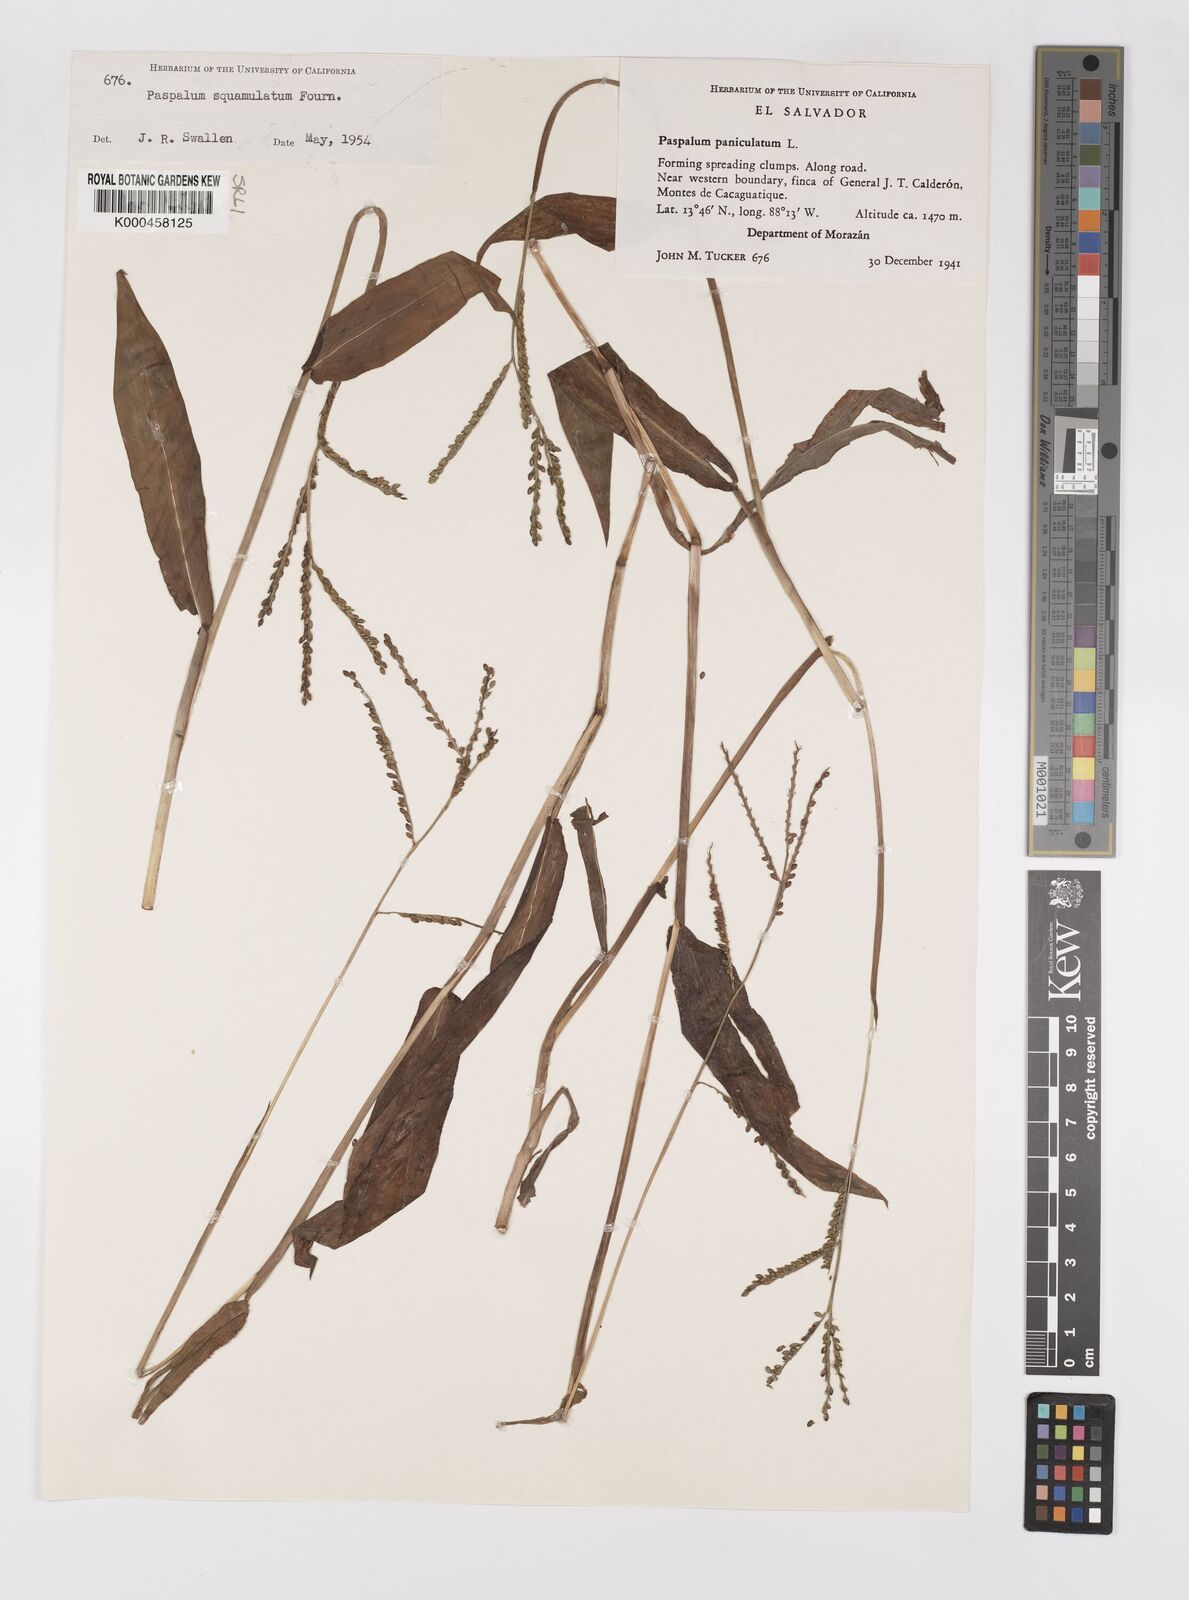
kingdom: Plantae
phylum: Tracheophyta
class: Liliopsida
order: Poales
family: Poaceae
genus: Paspalum
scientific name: Paspalum
